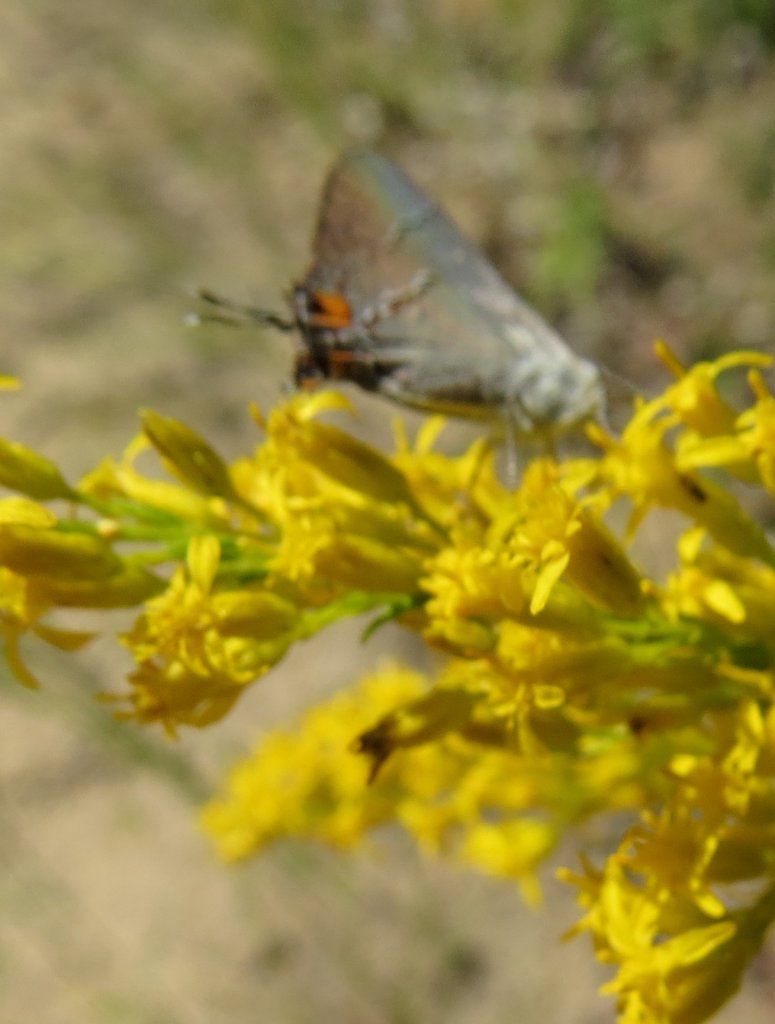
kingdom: Animalia
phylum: Arthropoda
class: Insecta
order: Lepidoptera
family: Lycaenidae
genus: Strymon
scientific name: Strymon melinus
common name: Gray Hairstreak
